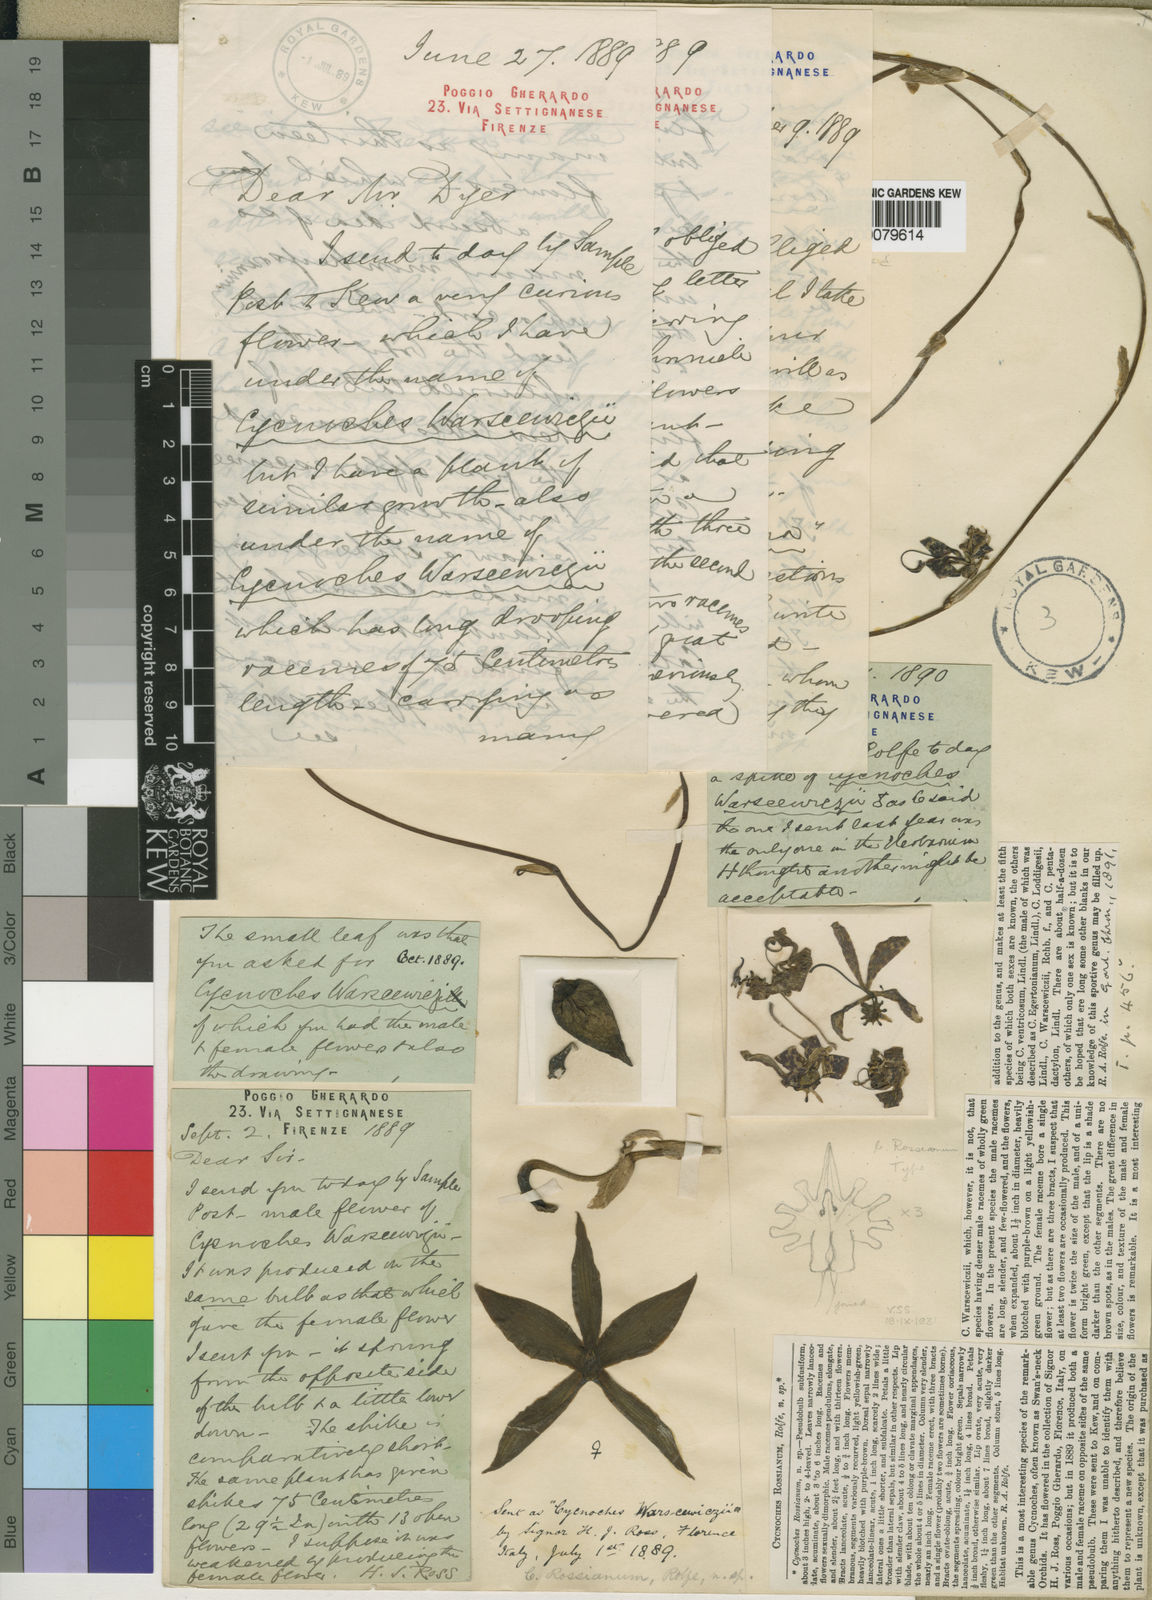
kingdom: Plantae
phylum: Tracheophyta
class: Liliopsida
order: Asparagales
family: Orchidaceae
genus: Cycnoches
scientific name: Cycnoches egertonianum
